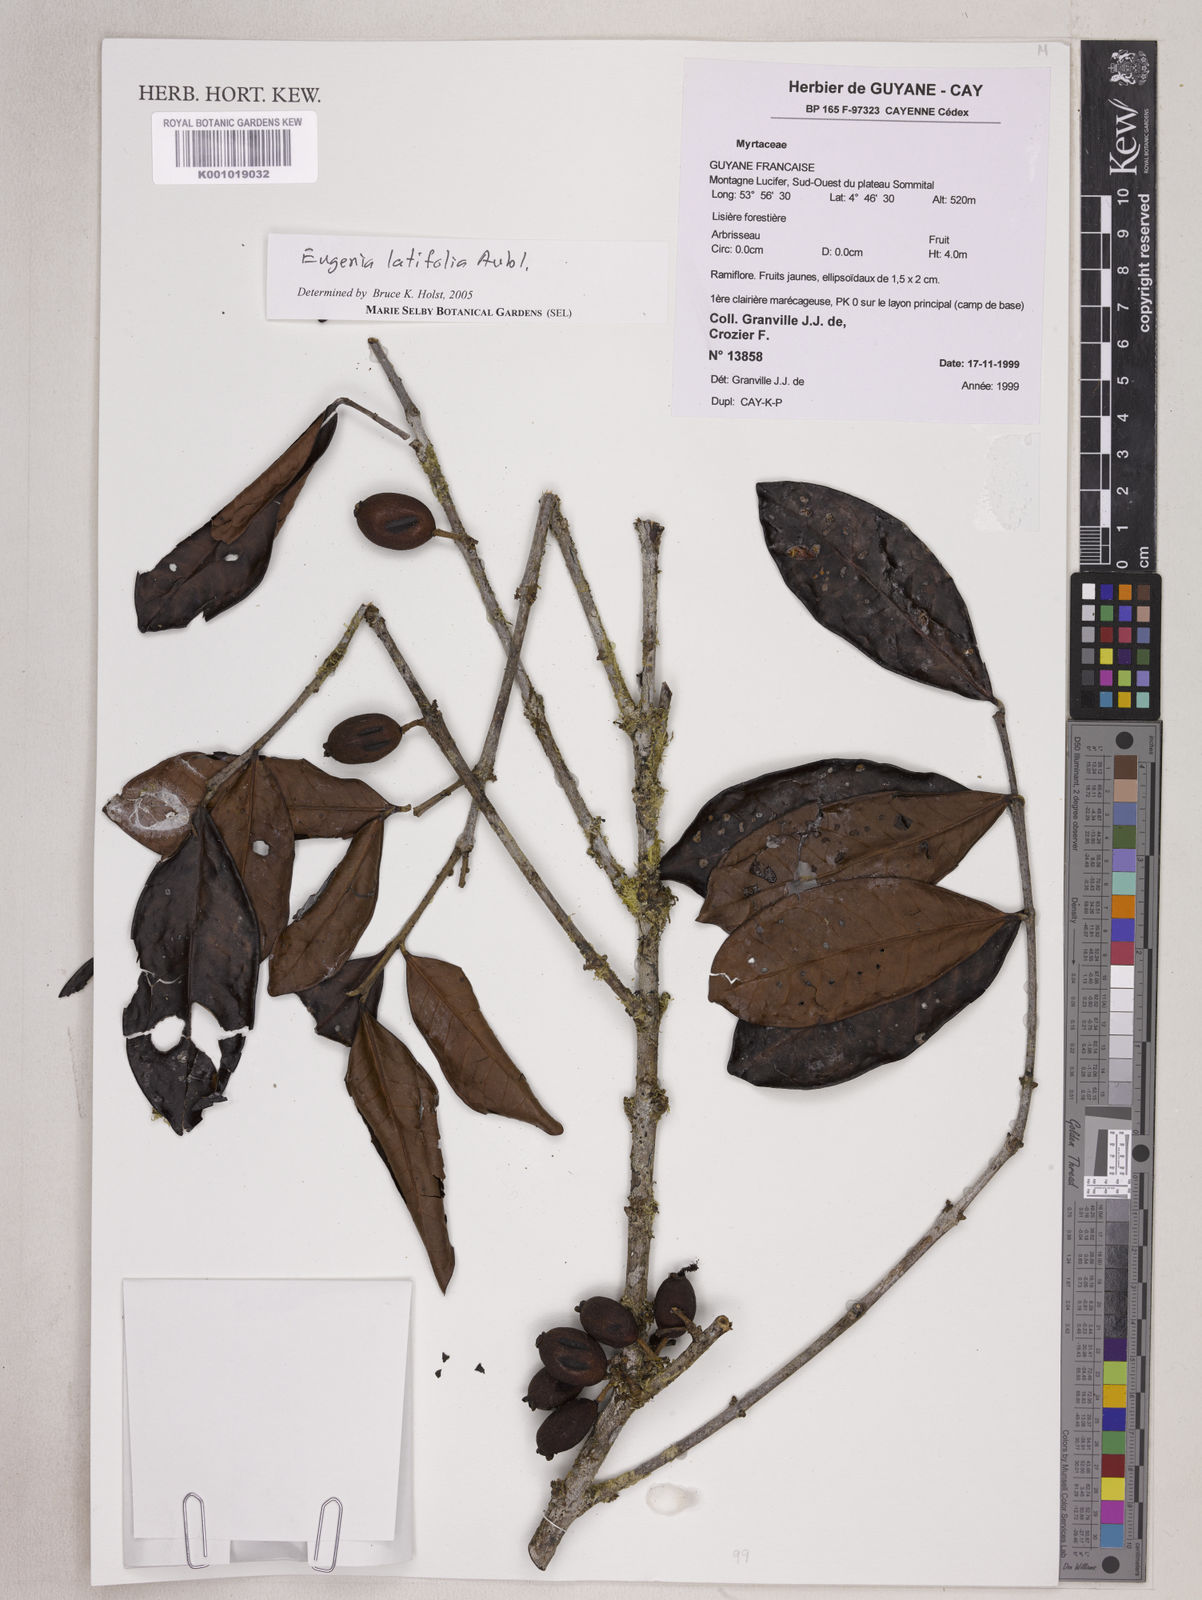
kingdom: Plantae
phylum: Tracheophyta
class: Magnoliopsida
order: Myrtales
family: Myrtaceae
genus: Eugenia
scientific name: Eugenia latifolia
